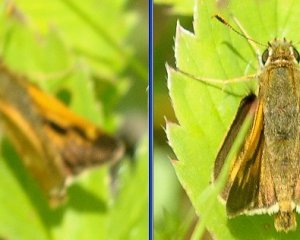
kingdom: Animalia
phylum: Arthropoda
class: Insecta
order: Lepidoptera
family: Hesperiidae
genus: Polites
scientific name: Polites
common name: Long Dash Skipper
